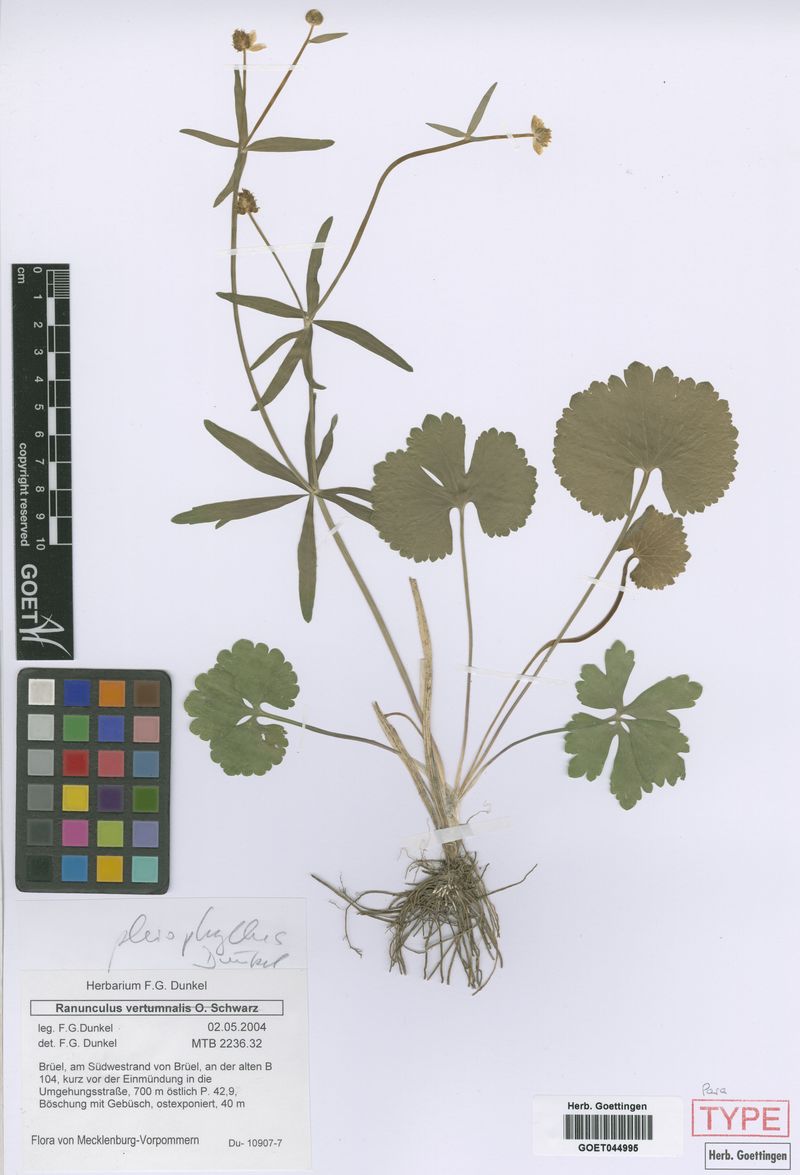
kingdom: Plantae
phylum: Tracheophyta
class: Magnoliopsida
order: Ranunculales
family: Ranunculaceae
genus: Ranunculus
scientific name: Ranunculus pleiophyllus
